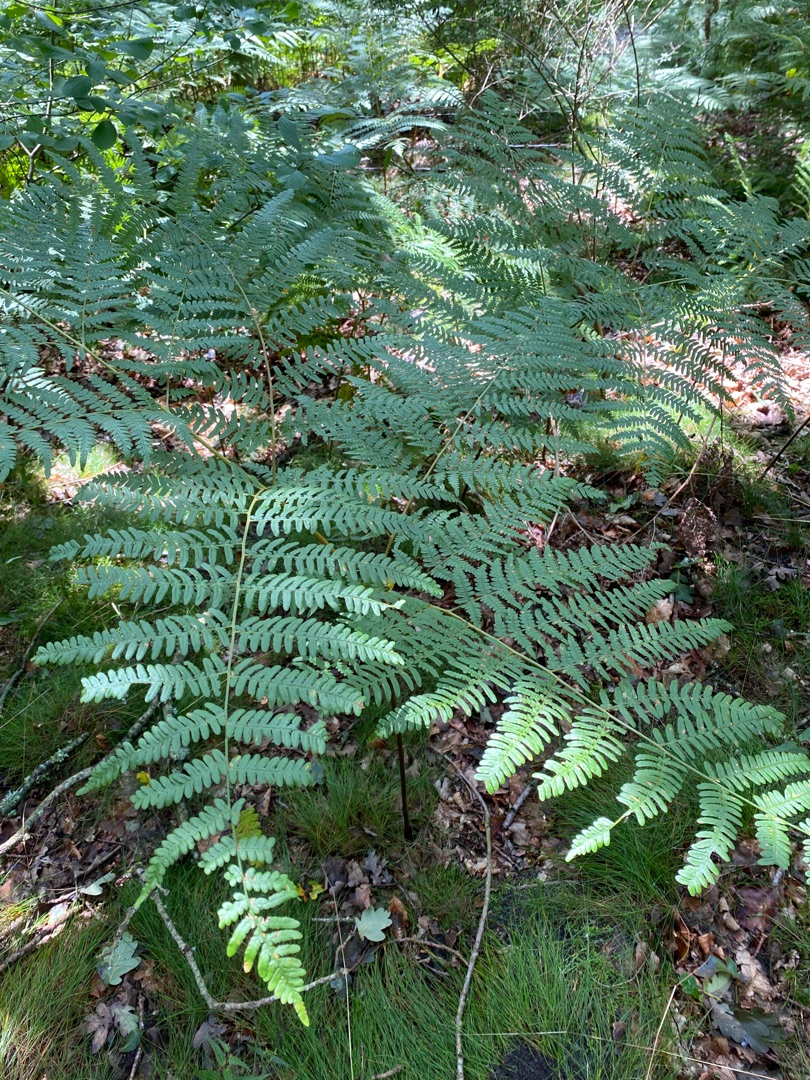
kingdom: Plantae
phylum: Tracheophyta
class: Polypodiopsida
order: Polypodiales
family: Dennstaedtiaceae
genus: Pteridium
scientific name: Pteridium aquilinum
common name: Ørnebregne
